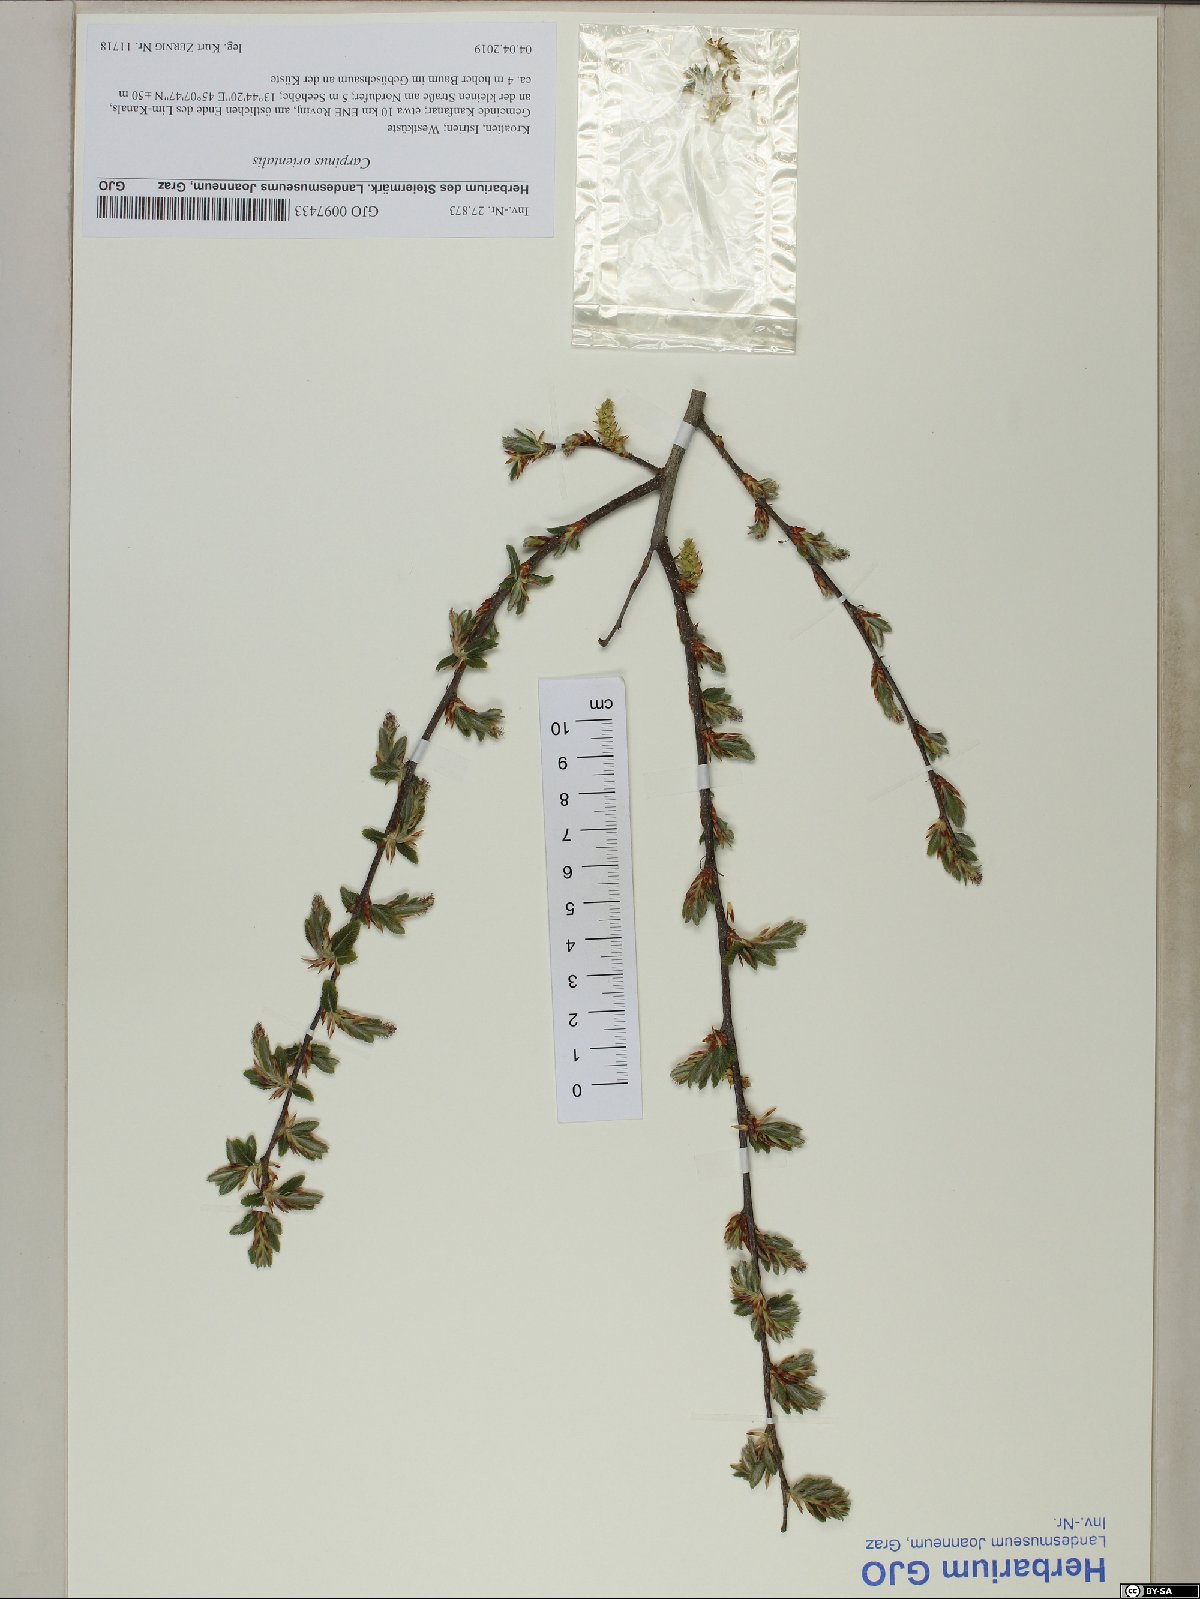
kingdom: Plantae
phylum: Tracheophyta
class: Magnoliopsida
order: Fagales
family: Betulaceae
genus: Carpinus
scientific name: Carpinus orientalis
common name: Eastern hornbeam
